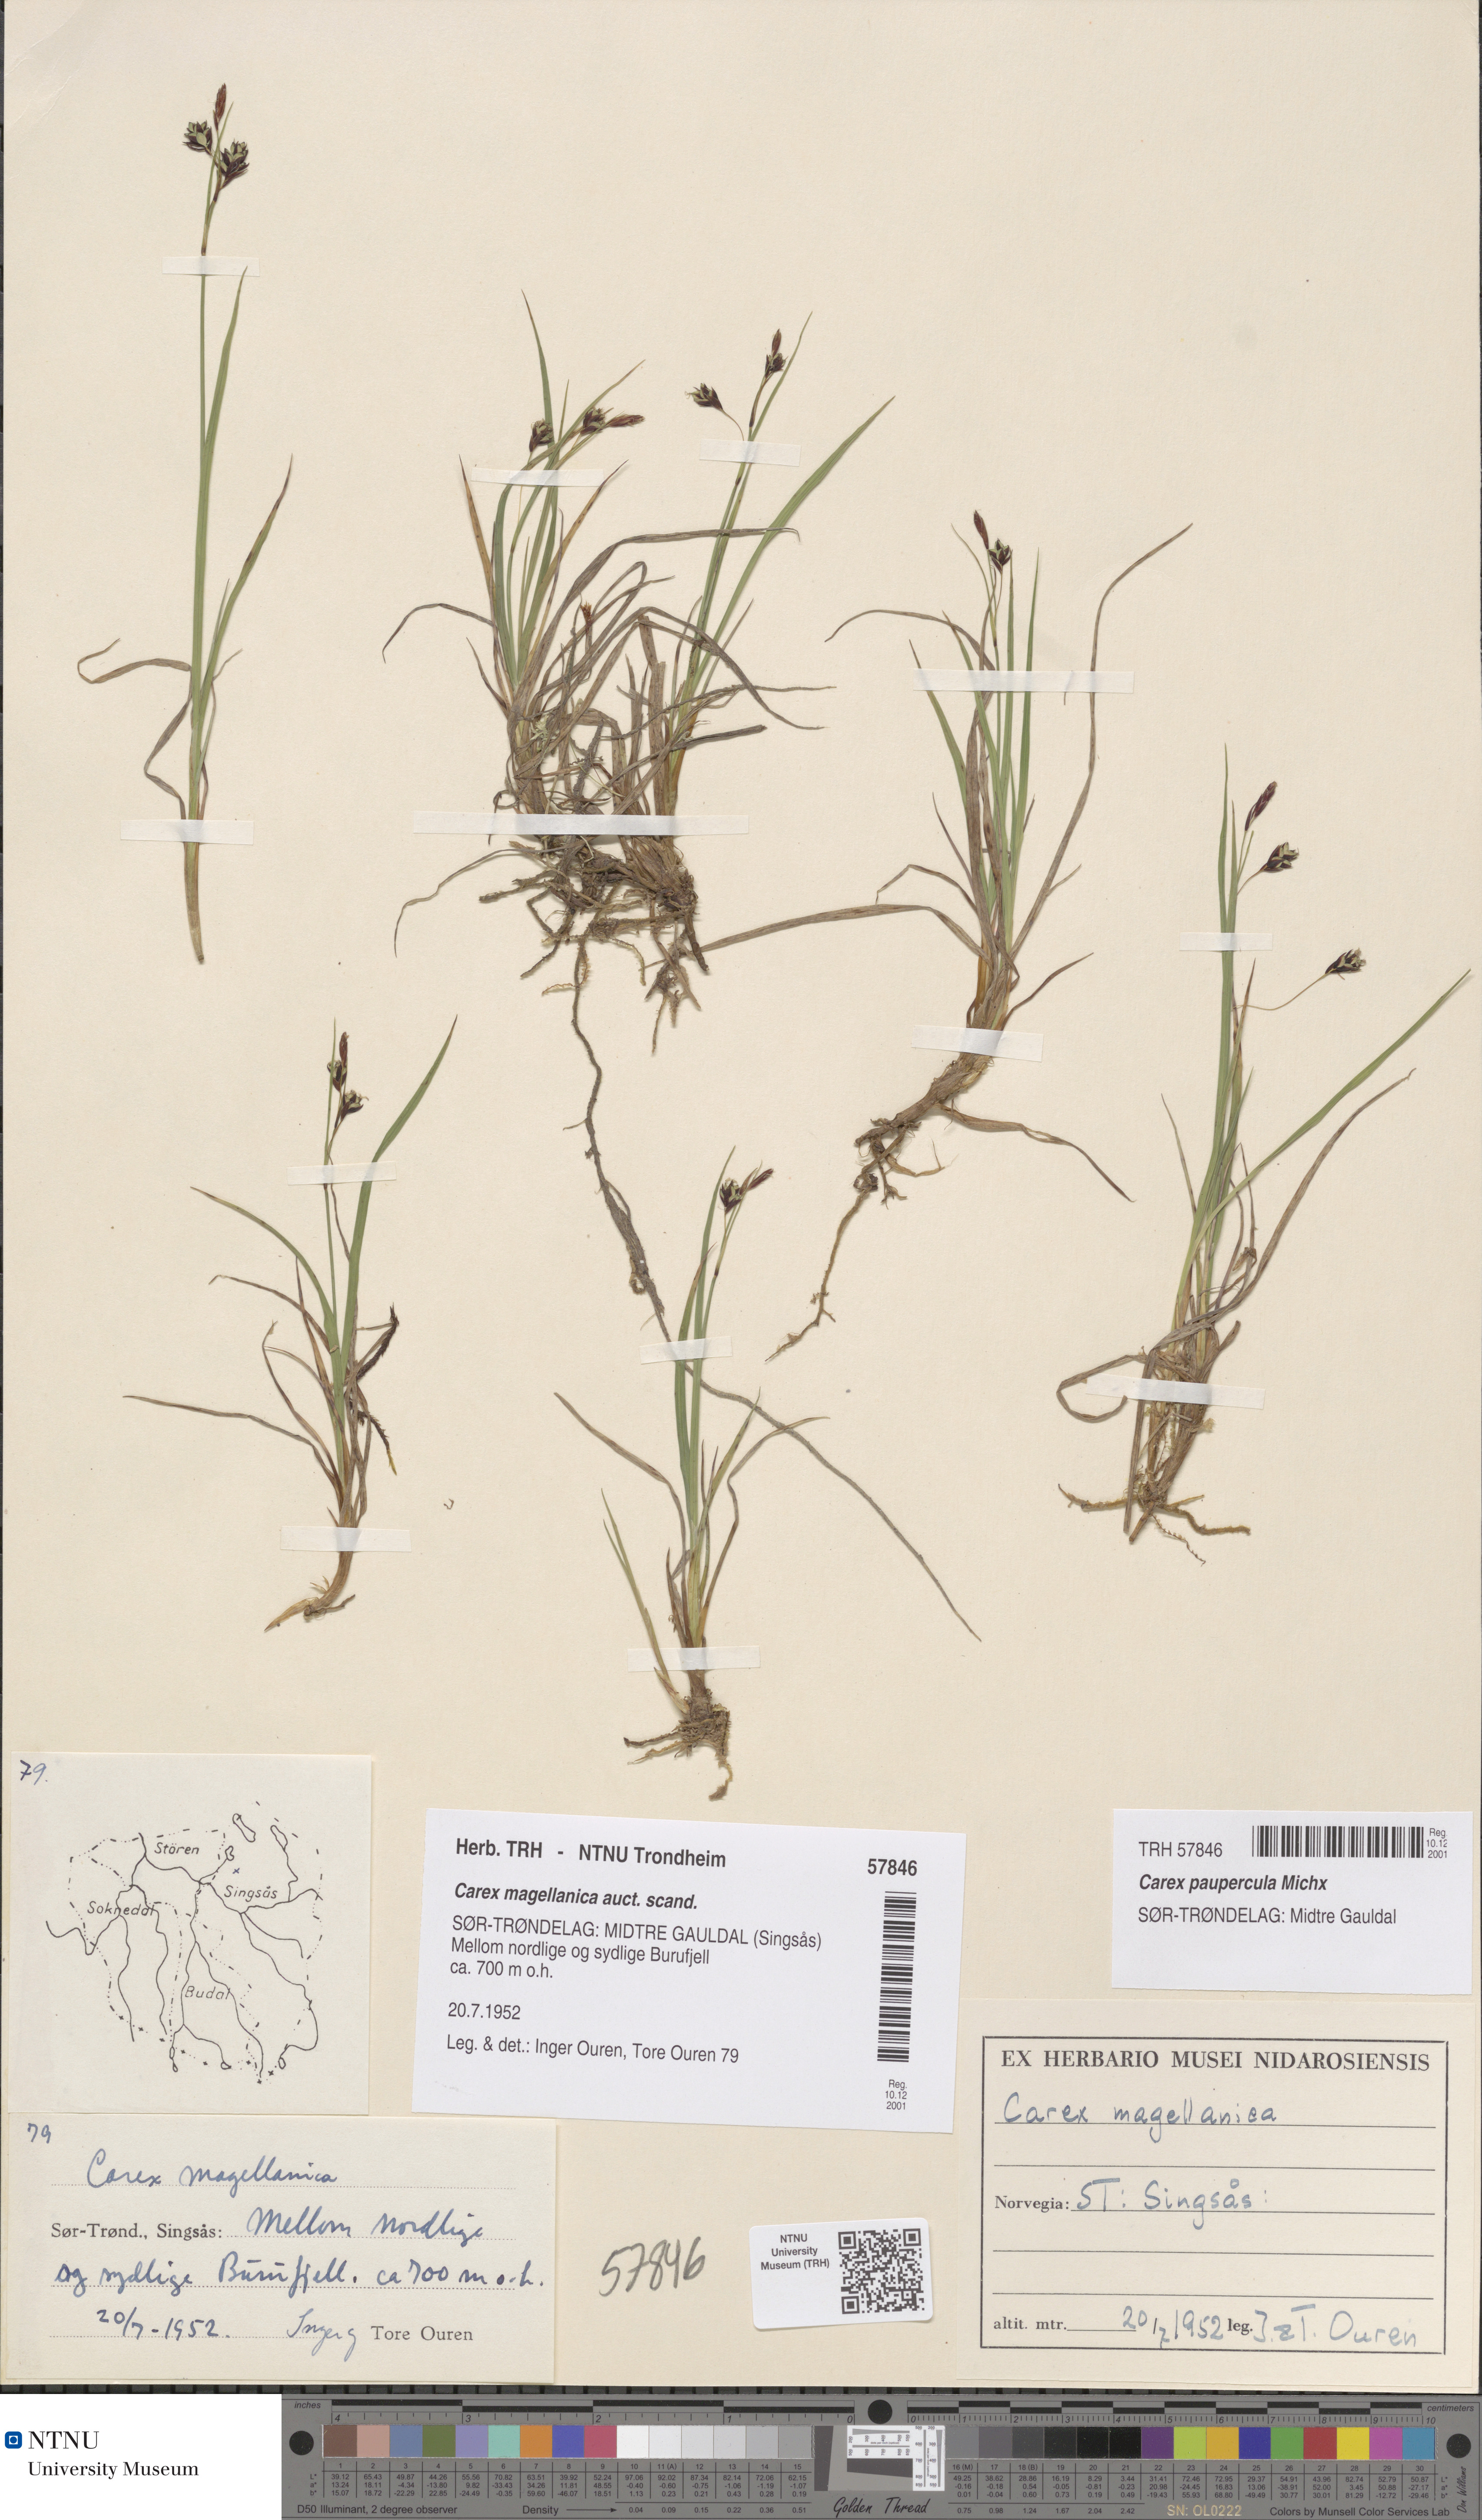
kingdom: Plantae
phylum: Tracheophyta
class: Liliopsida
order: Poales
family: Cyperaceae
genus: Carex
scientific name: Carex magellanica
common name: Bog sedge
